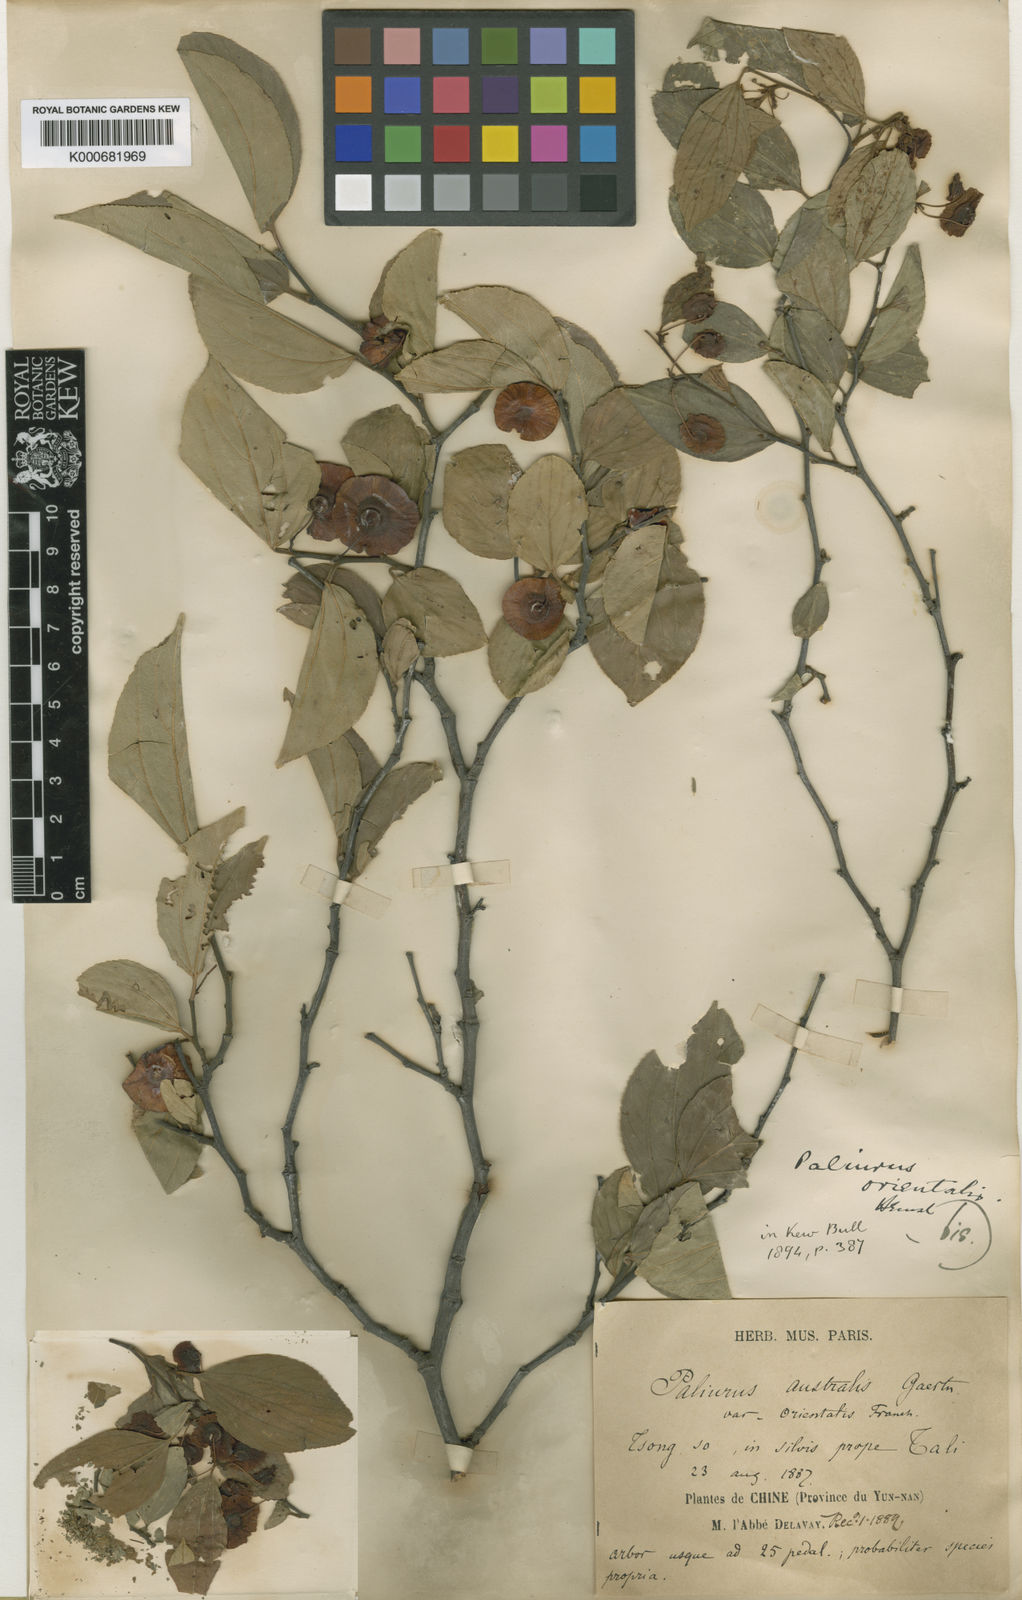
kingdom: Plantae
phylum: Tracheophyta
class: Magnoliopsida
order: Rosales
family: Rhamnaceae
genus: Paliurus
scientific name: Paliurus hemsleyanus
